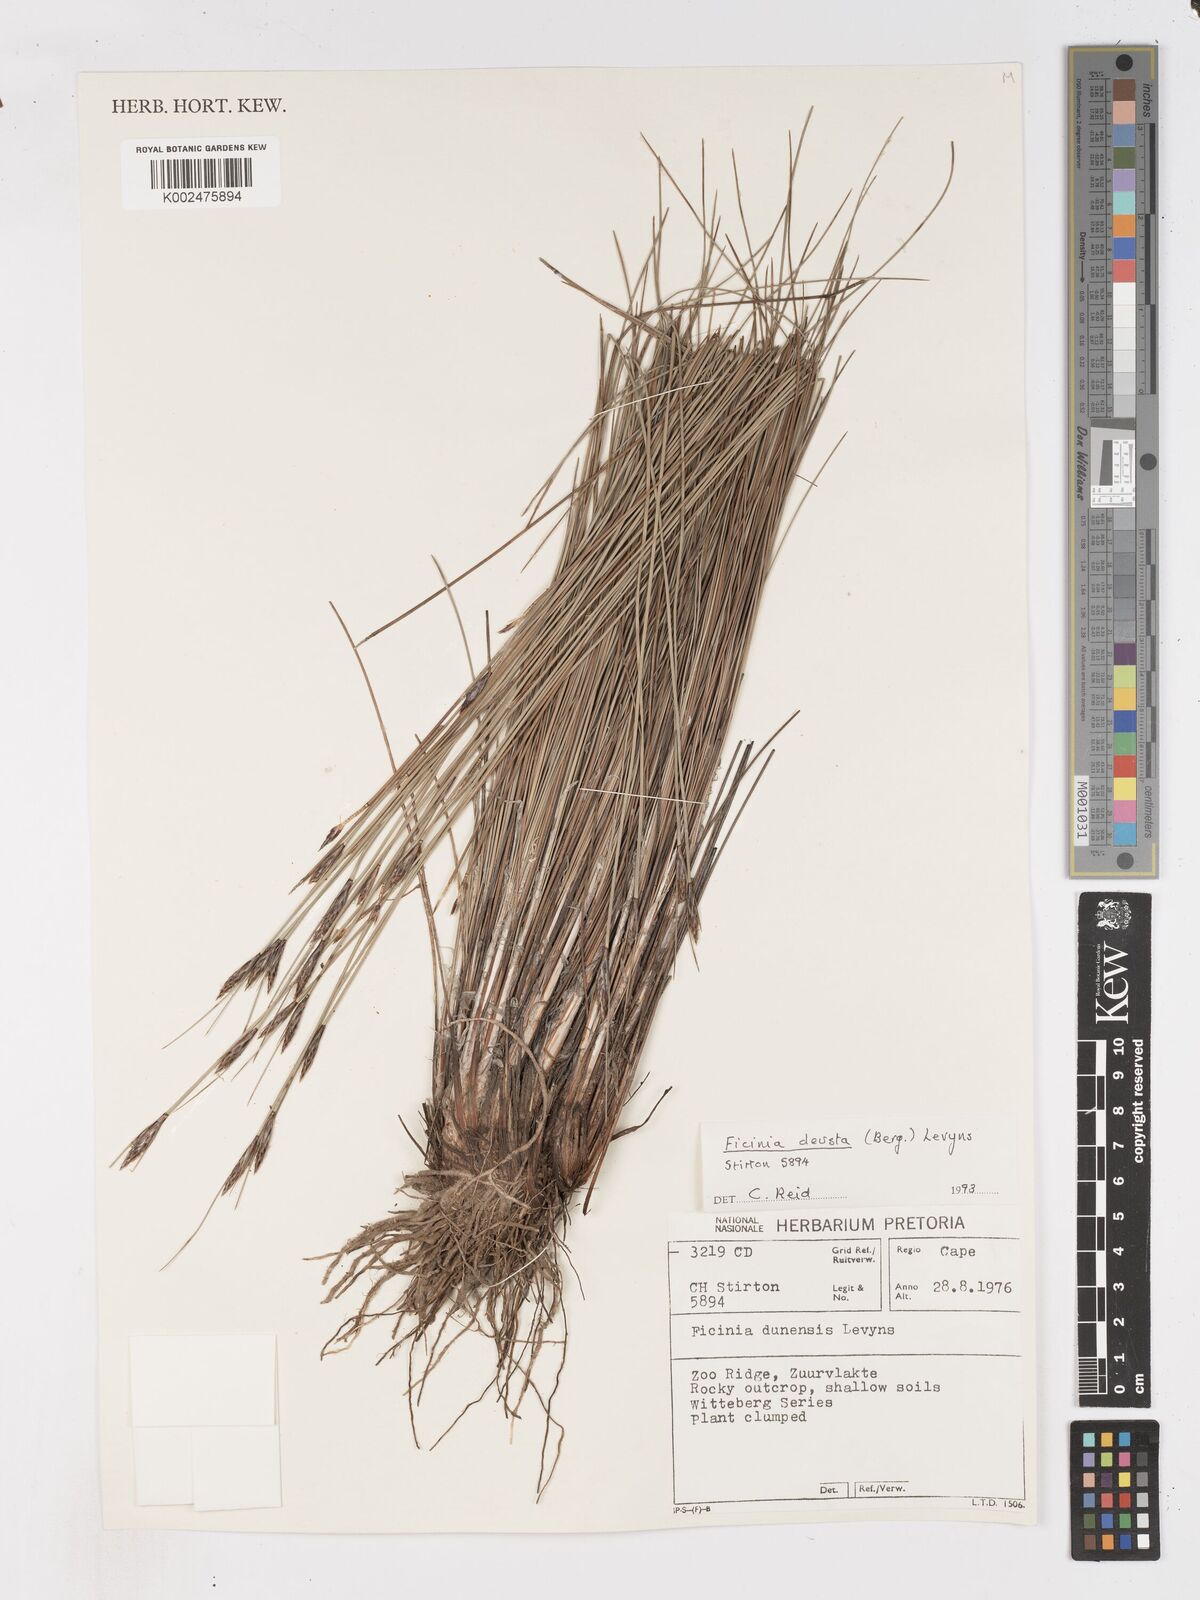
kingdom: Plantae
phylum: Tracheophyta
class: Liliopsida
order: Poales
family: Cyperaceae
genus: Ficinia
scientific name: Ficinia deusta
